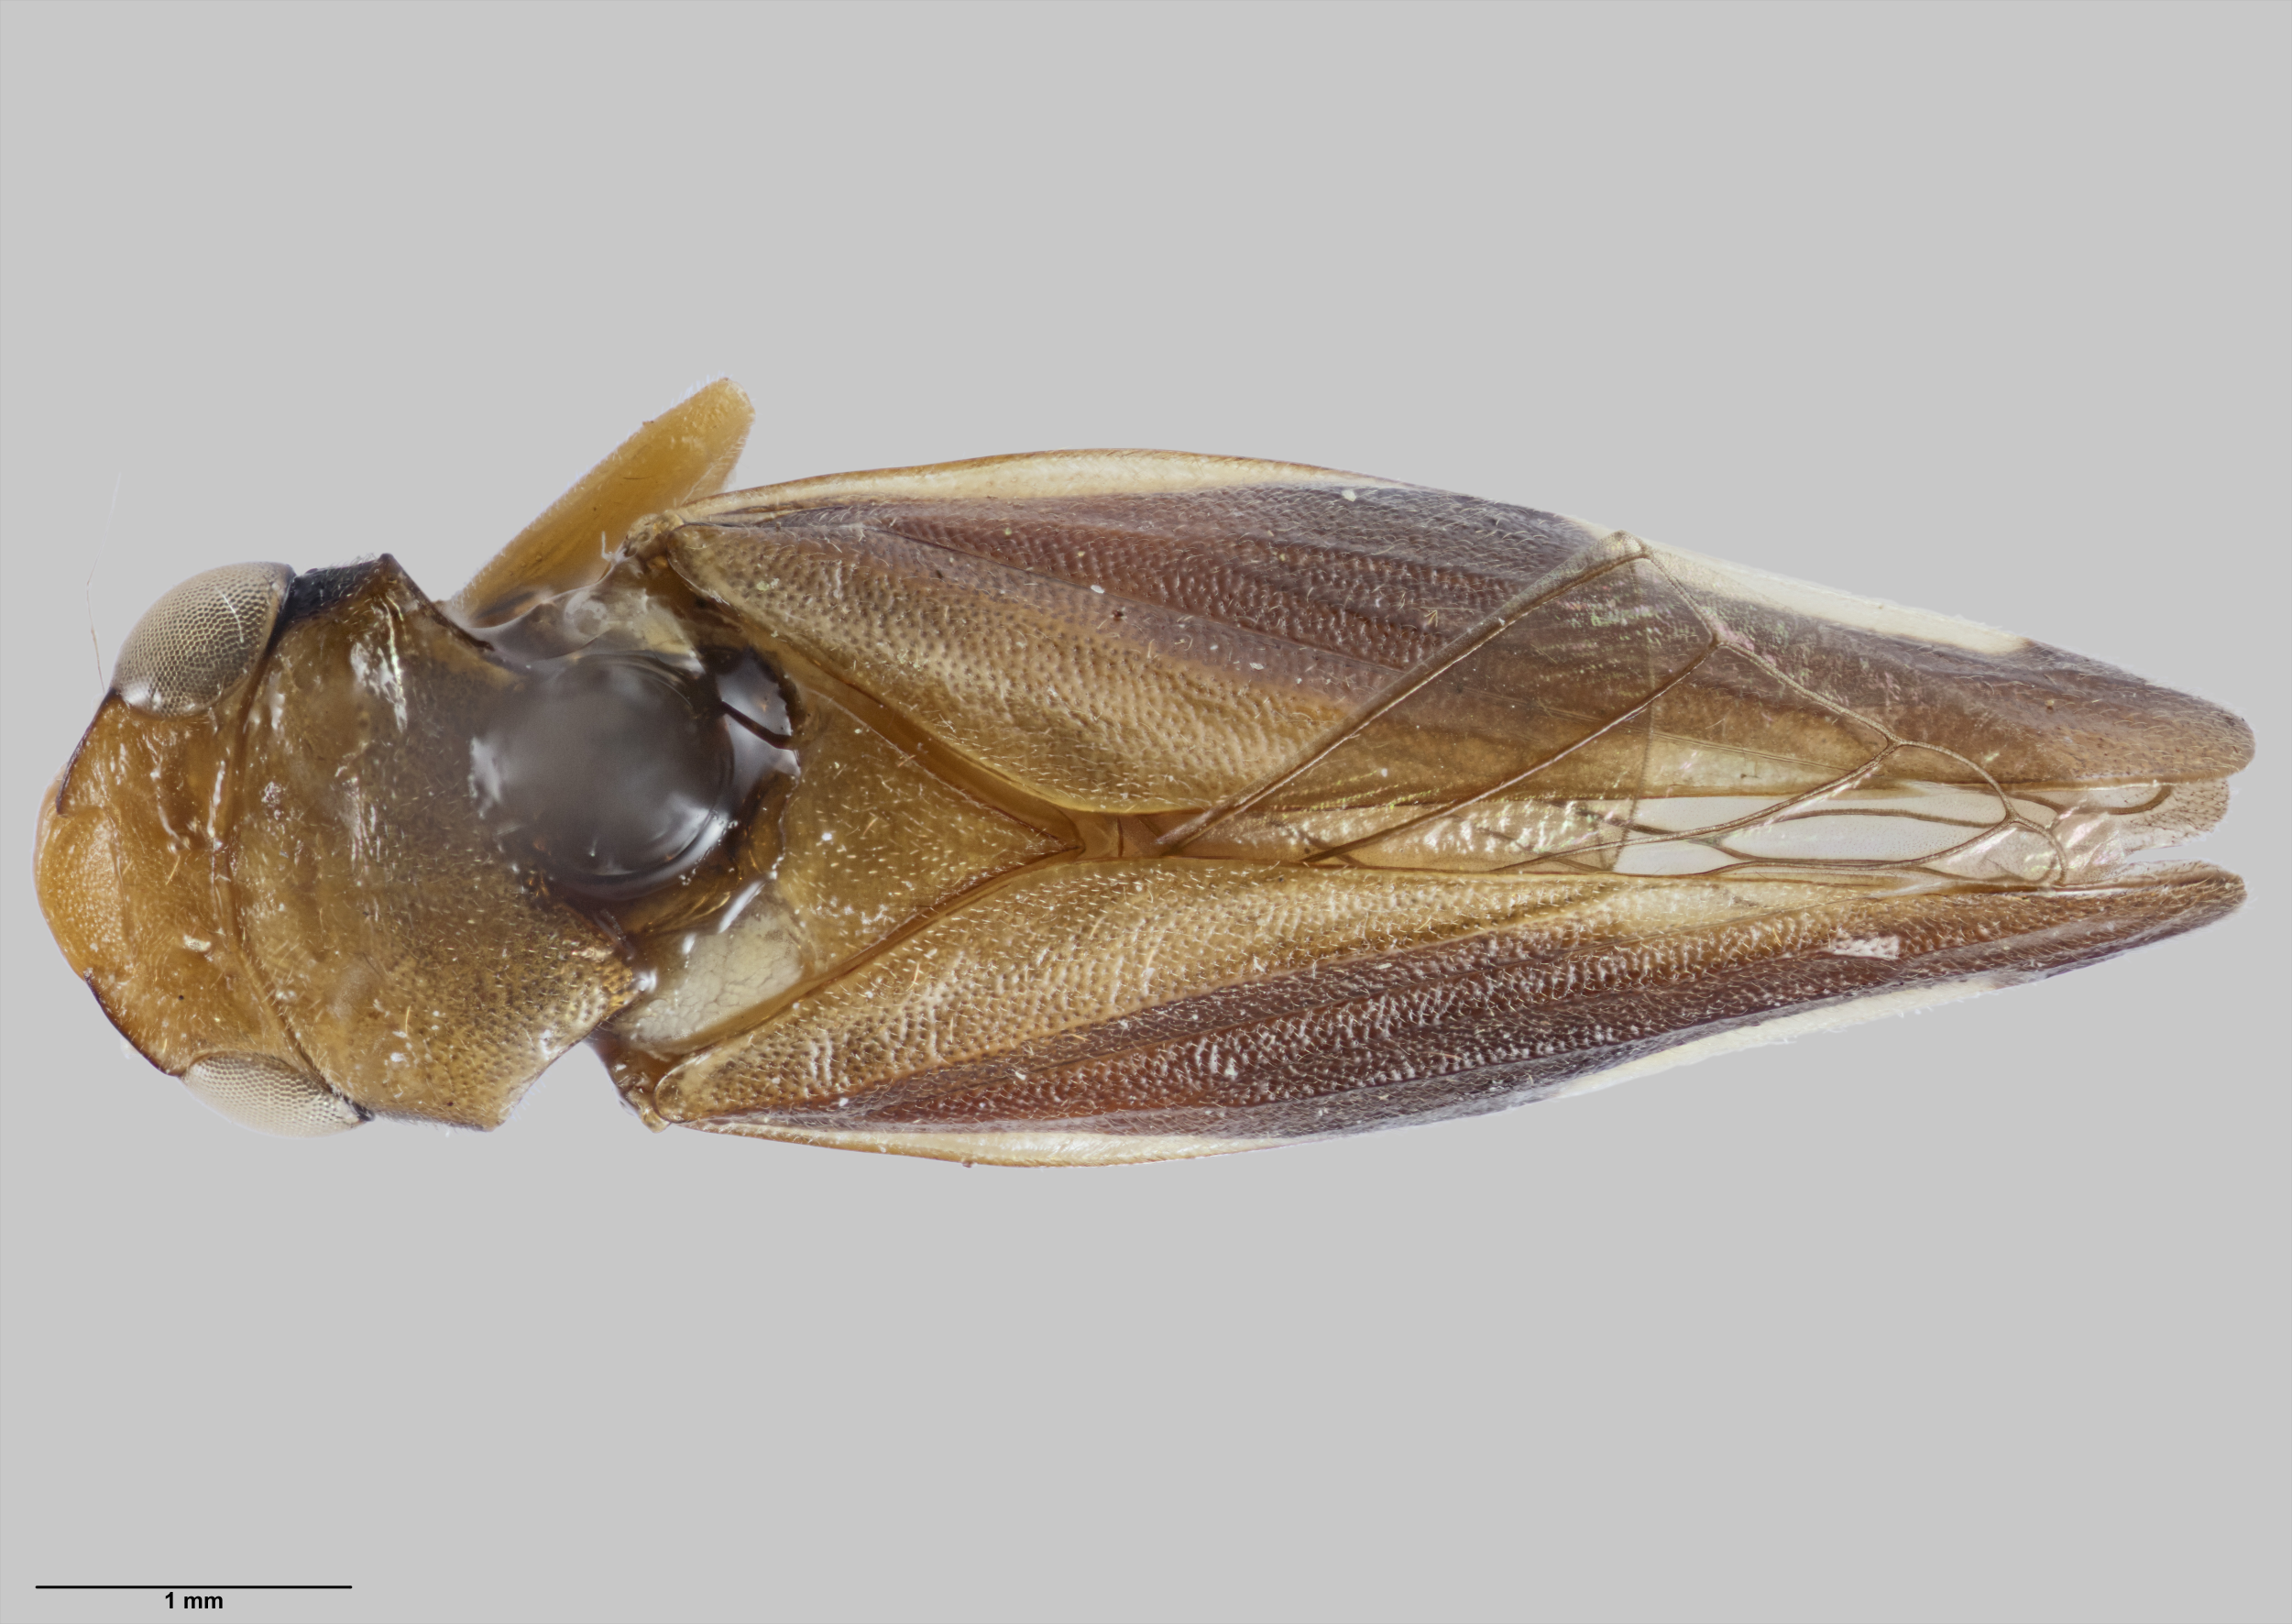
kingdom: Animalia
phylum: Arthropoda
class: Insecta
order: Hemiptera
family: Aphrophoridae
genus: Carystoterpa
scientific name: Carystoterpa ikana
